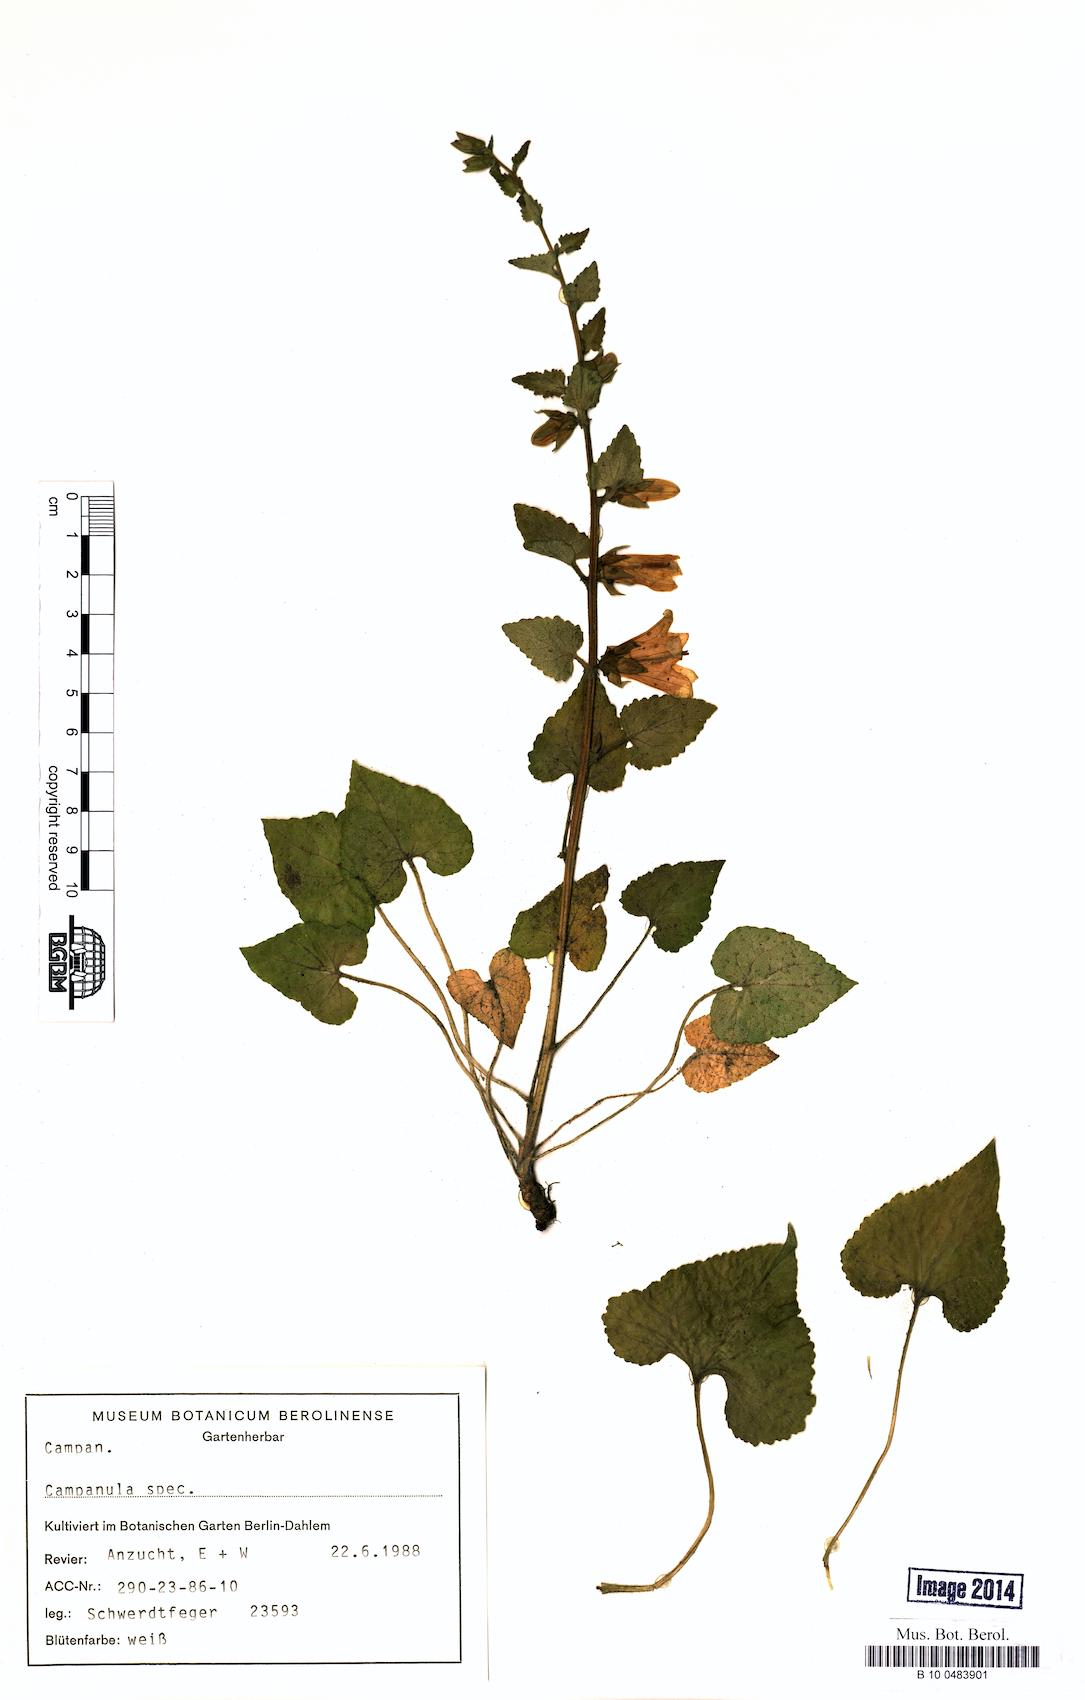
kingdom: Plantae
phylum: Tracheophyta
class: Magnoliopsida
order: Asterales
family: Campanulaceae
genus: Campanula
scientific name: Campanula alliariifolia
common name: Cornish bellflower
